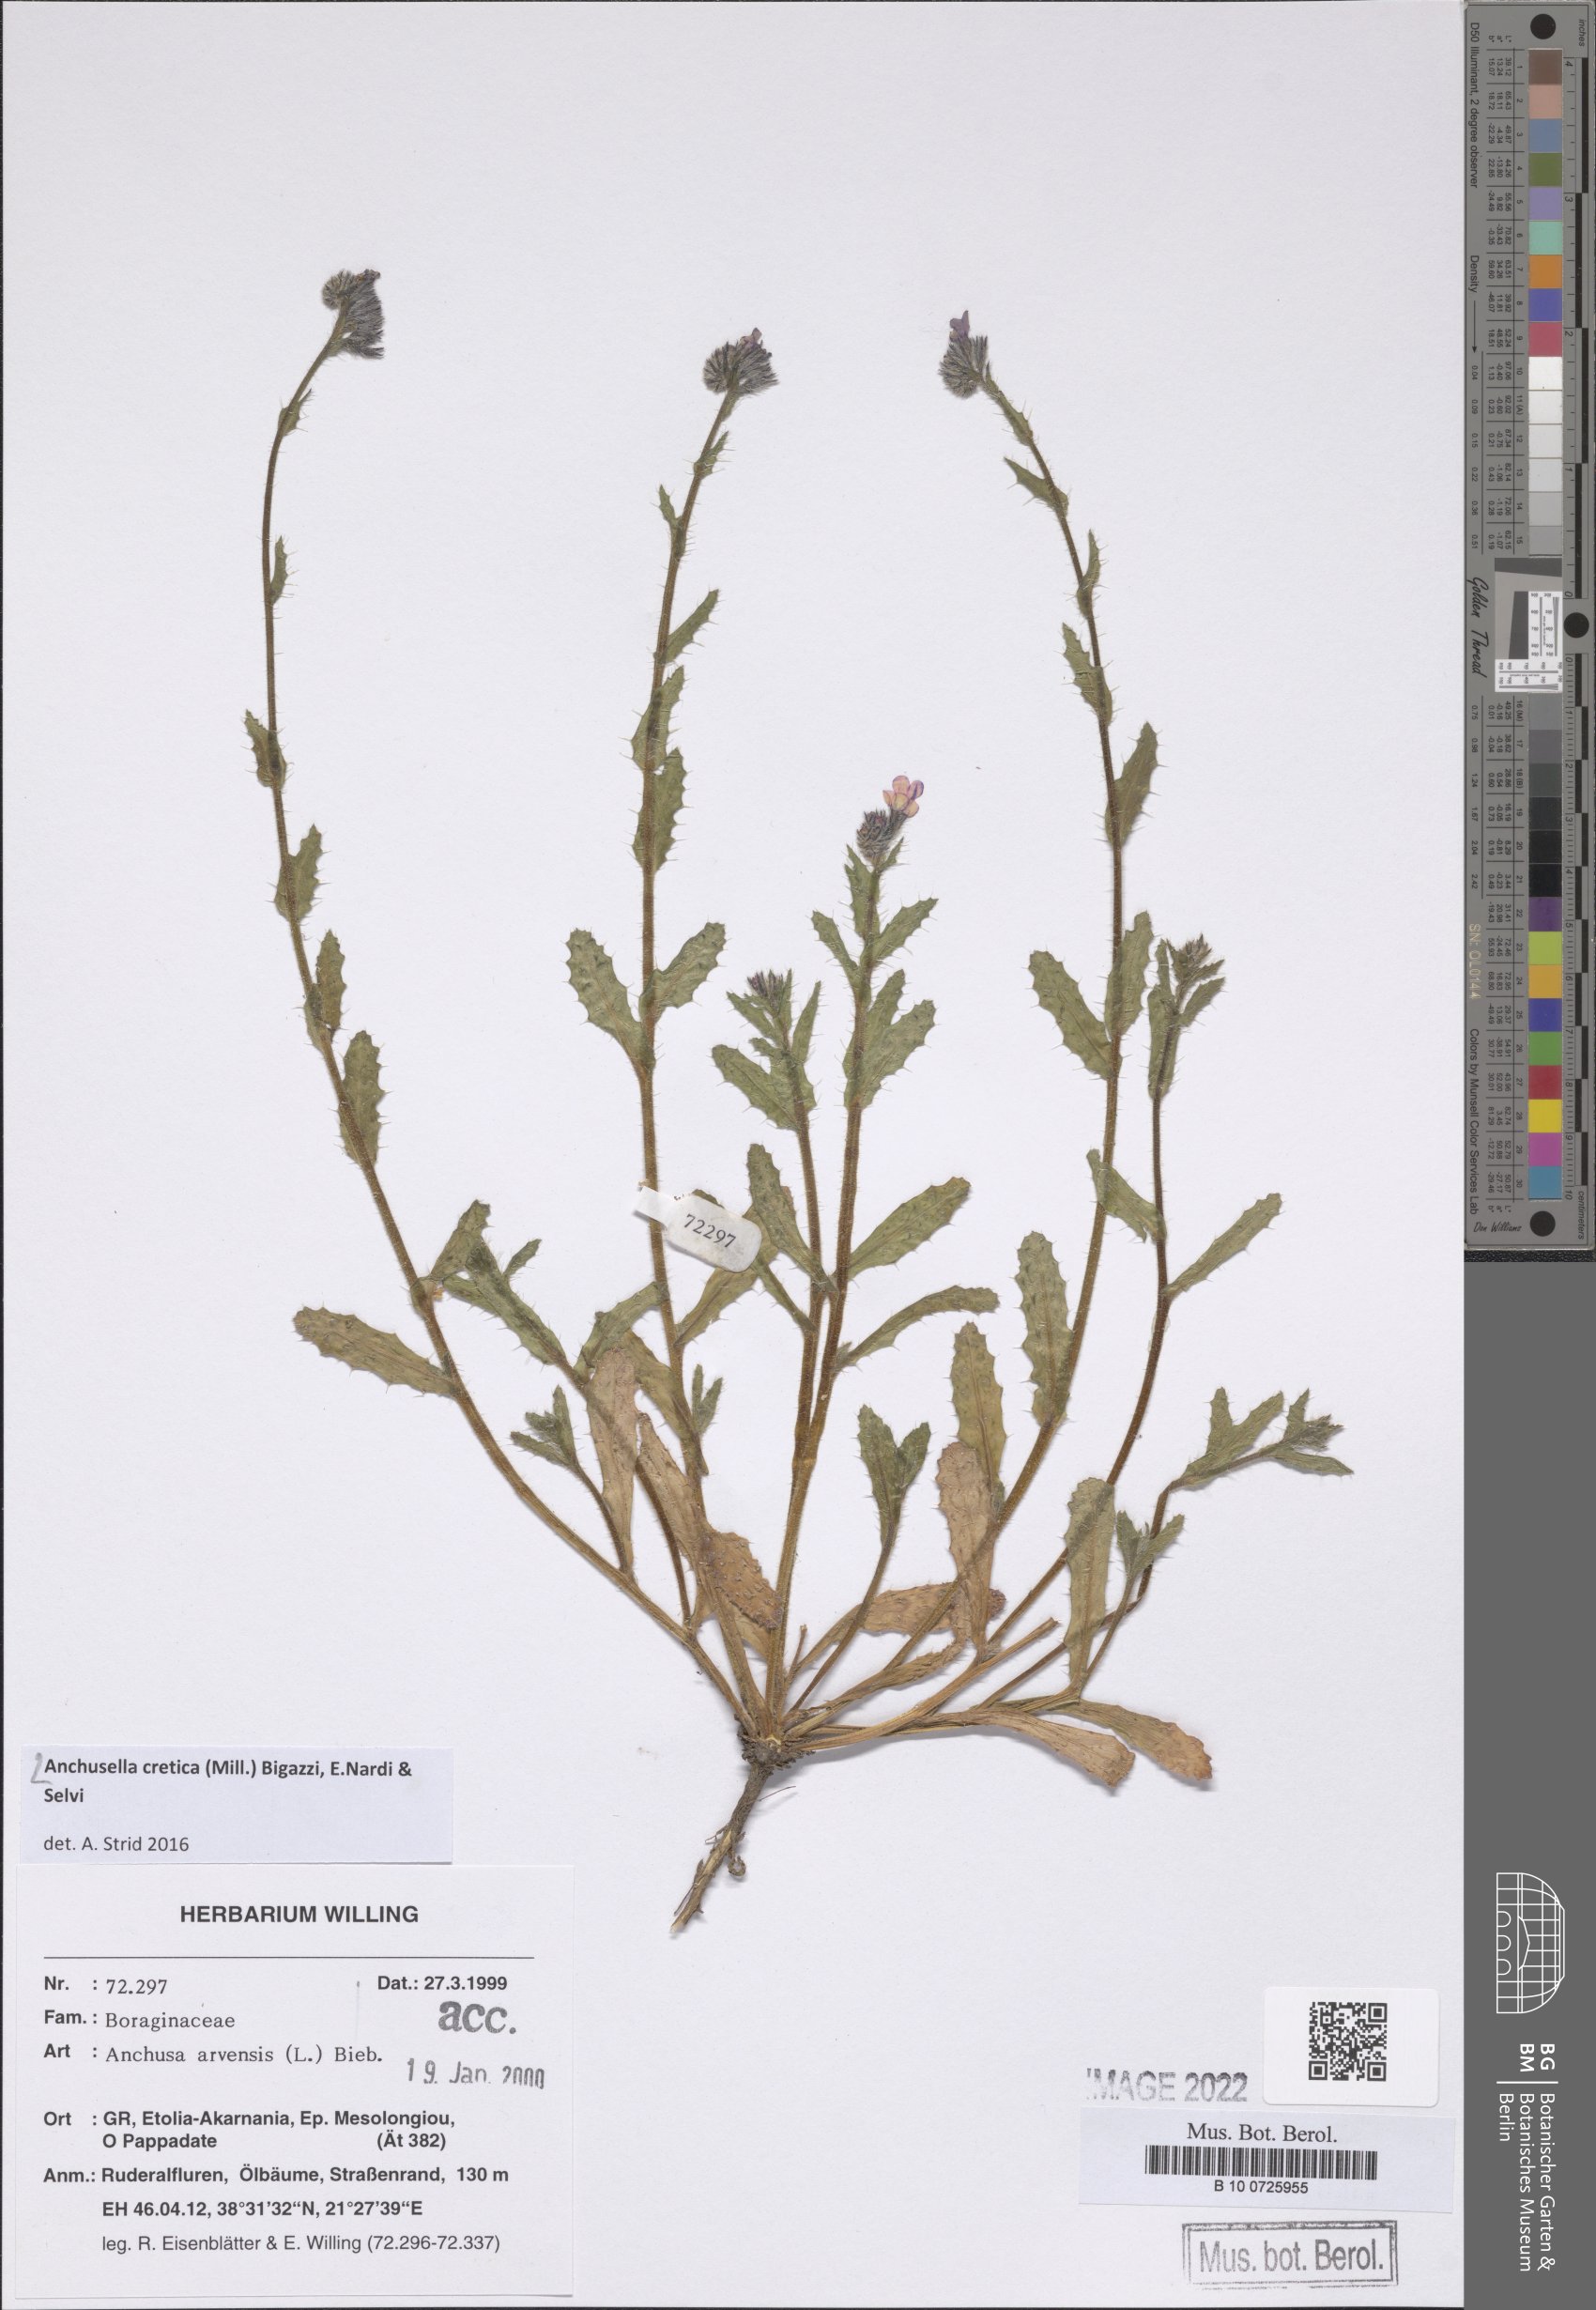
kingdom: Plantae
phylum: Tracheophyta
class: Magnoliopsida
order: Boraginales
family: Boraginaceae
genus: Anchusella
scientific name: Anchusella cretica
